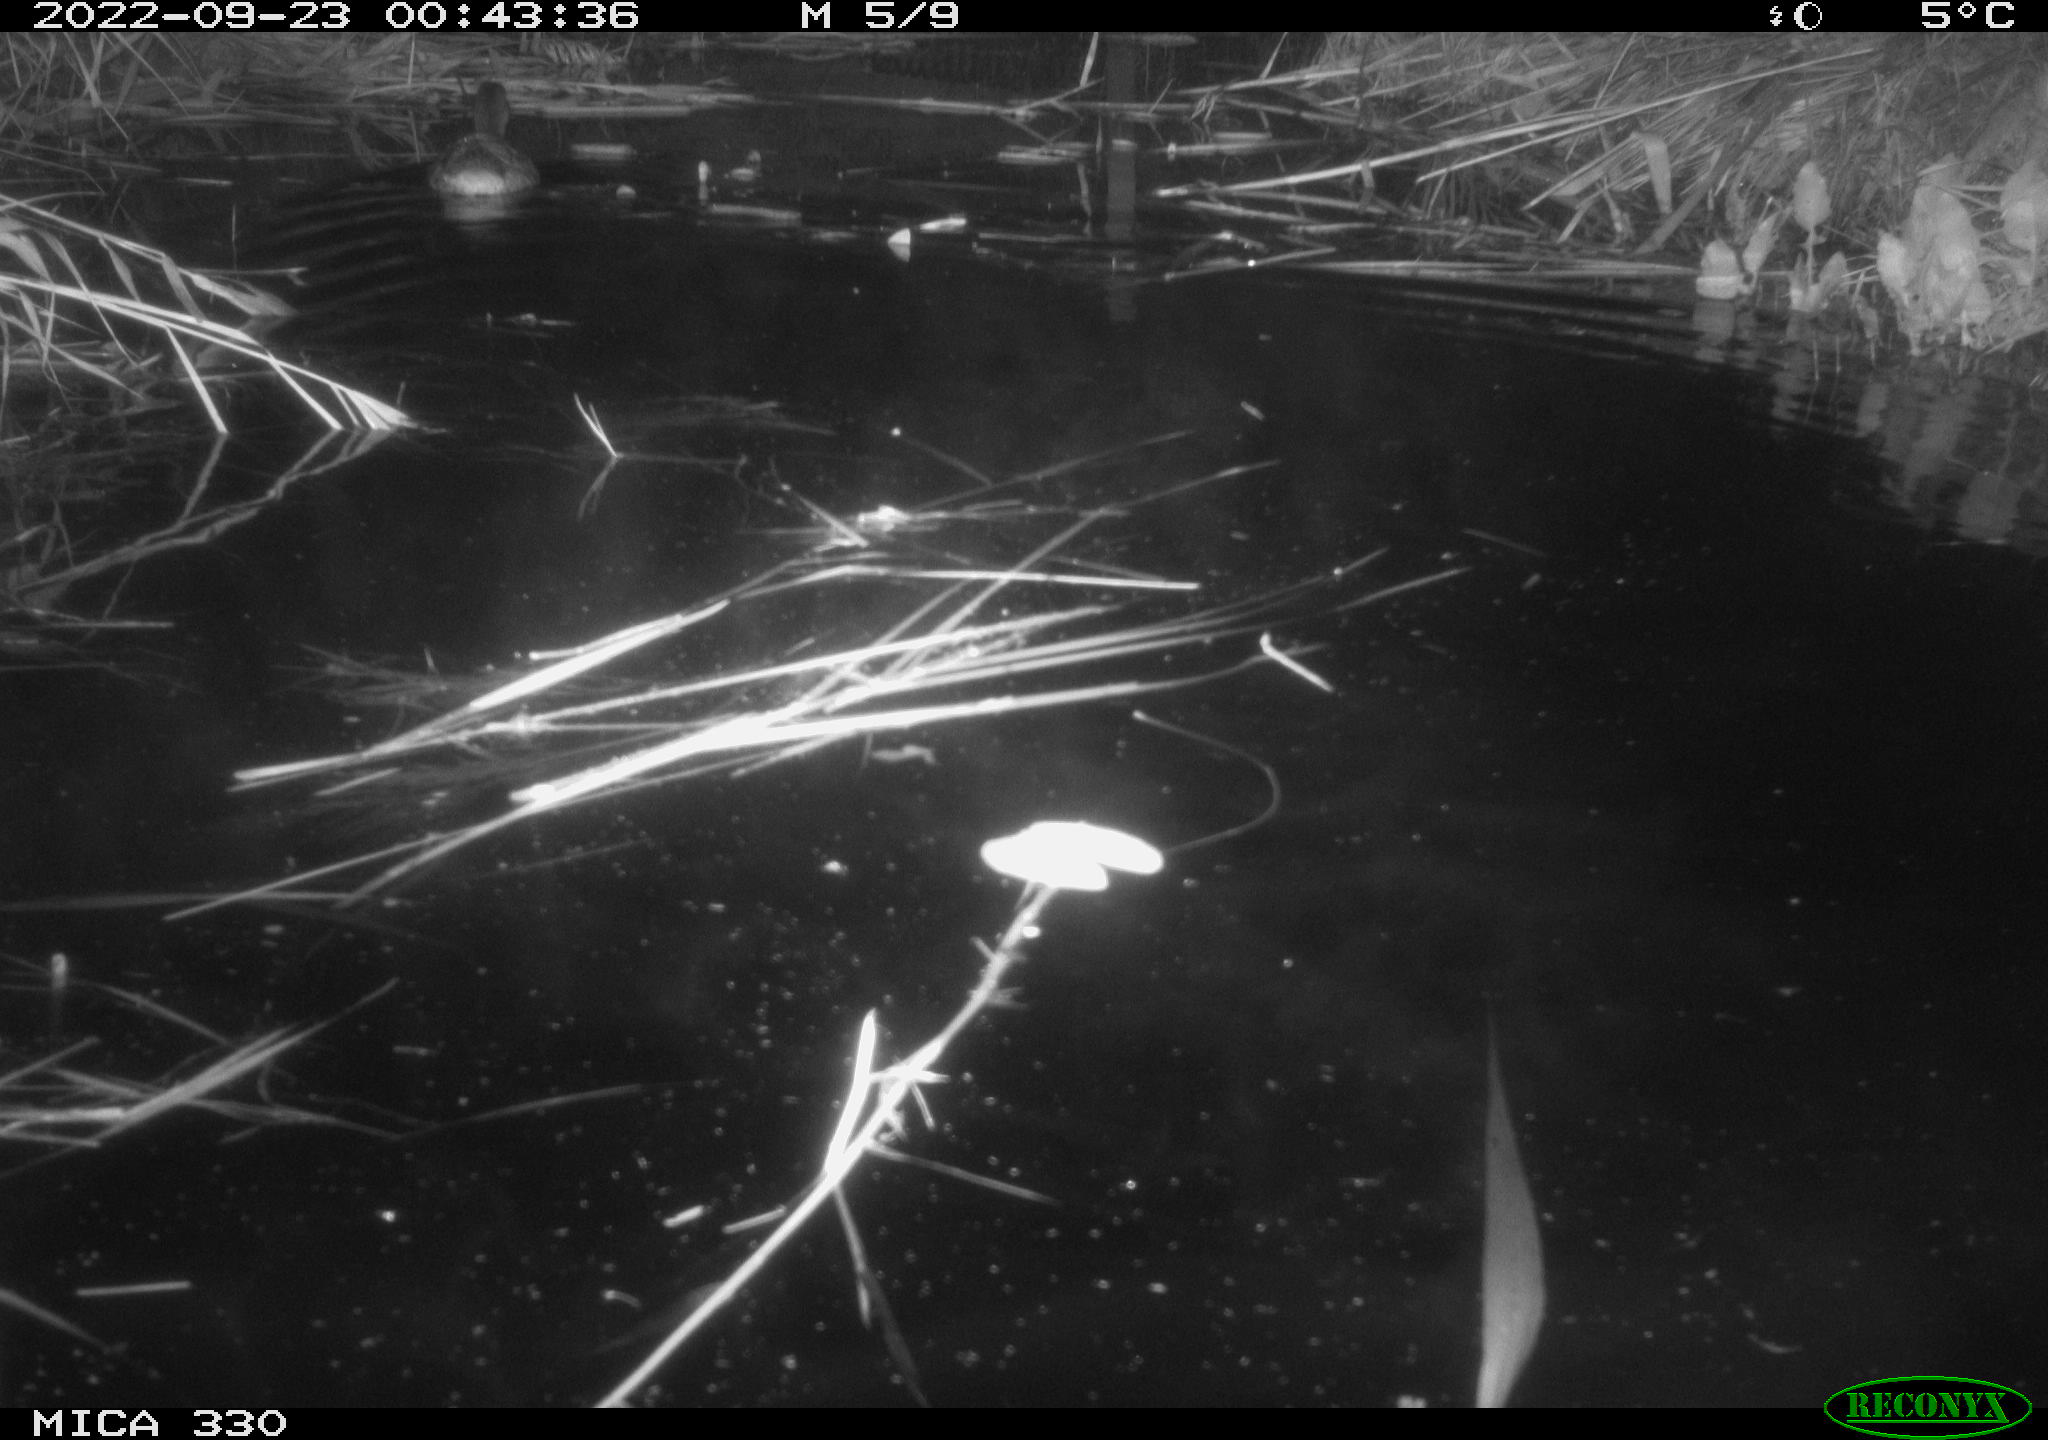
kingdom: Animalia
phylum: Chordata
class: Aves
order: Anseriformes
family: Anatidae
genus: Anas
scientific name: Anas platyrhynchos
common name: Mallard
